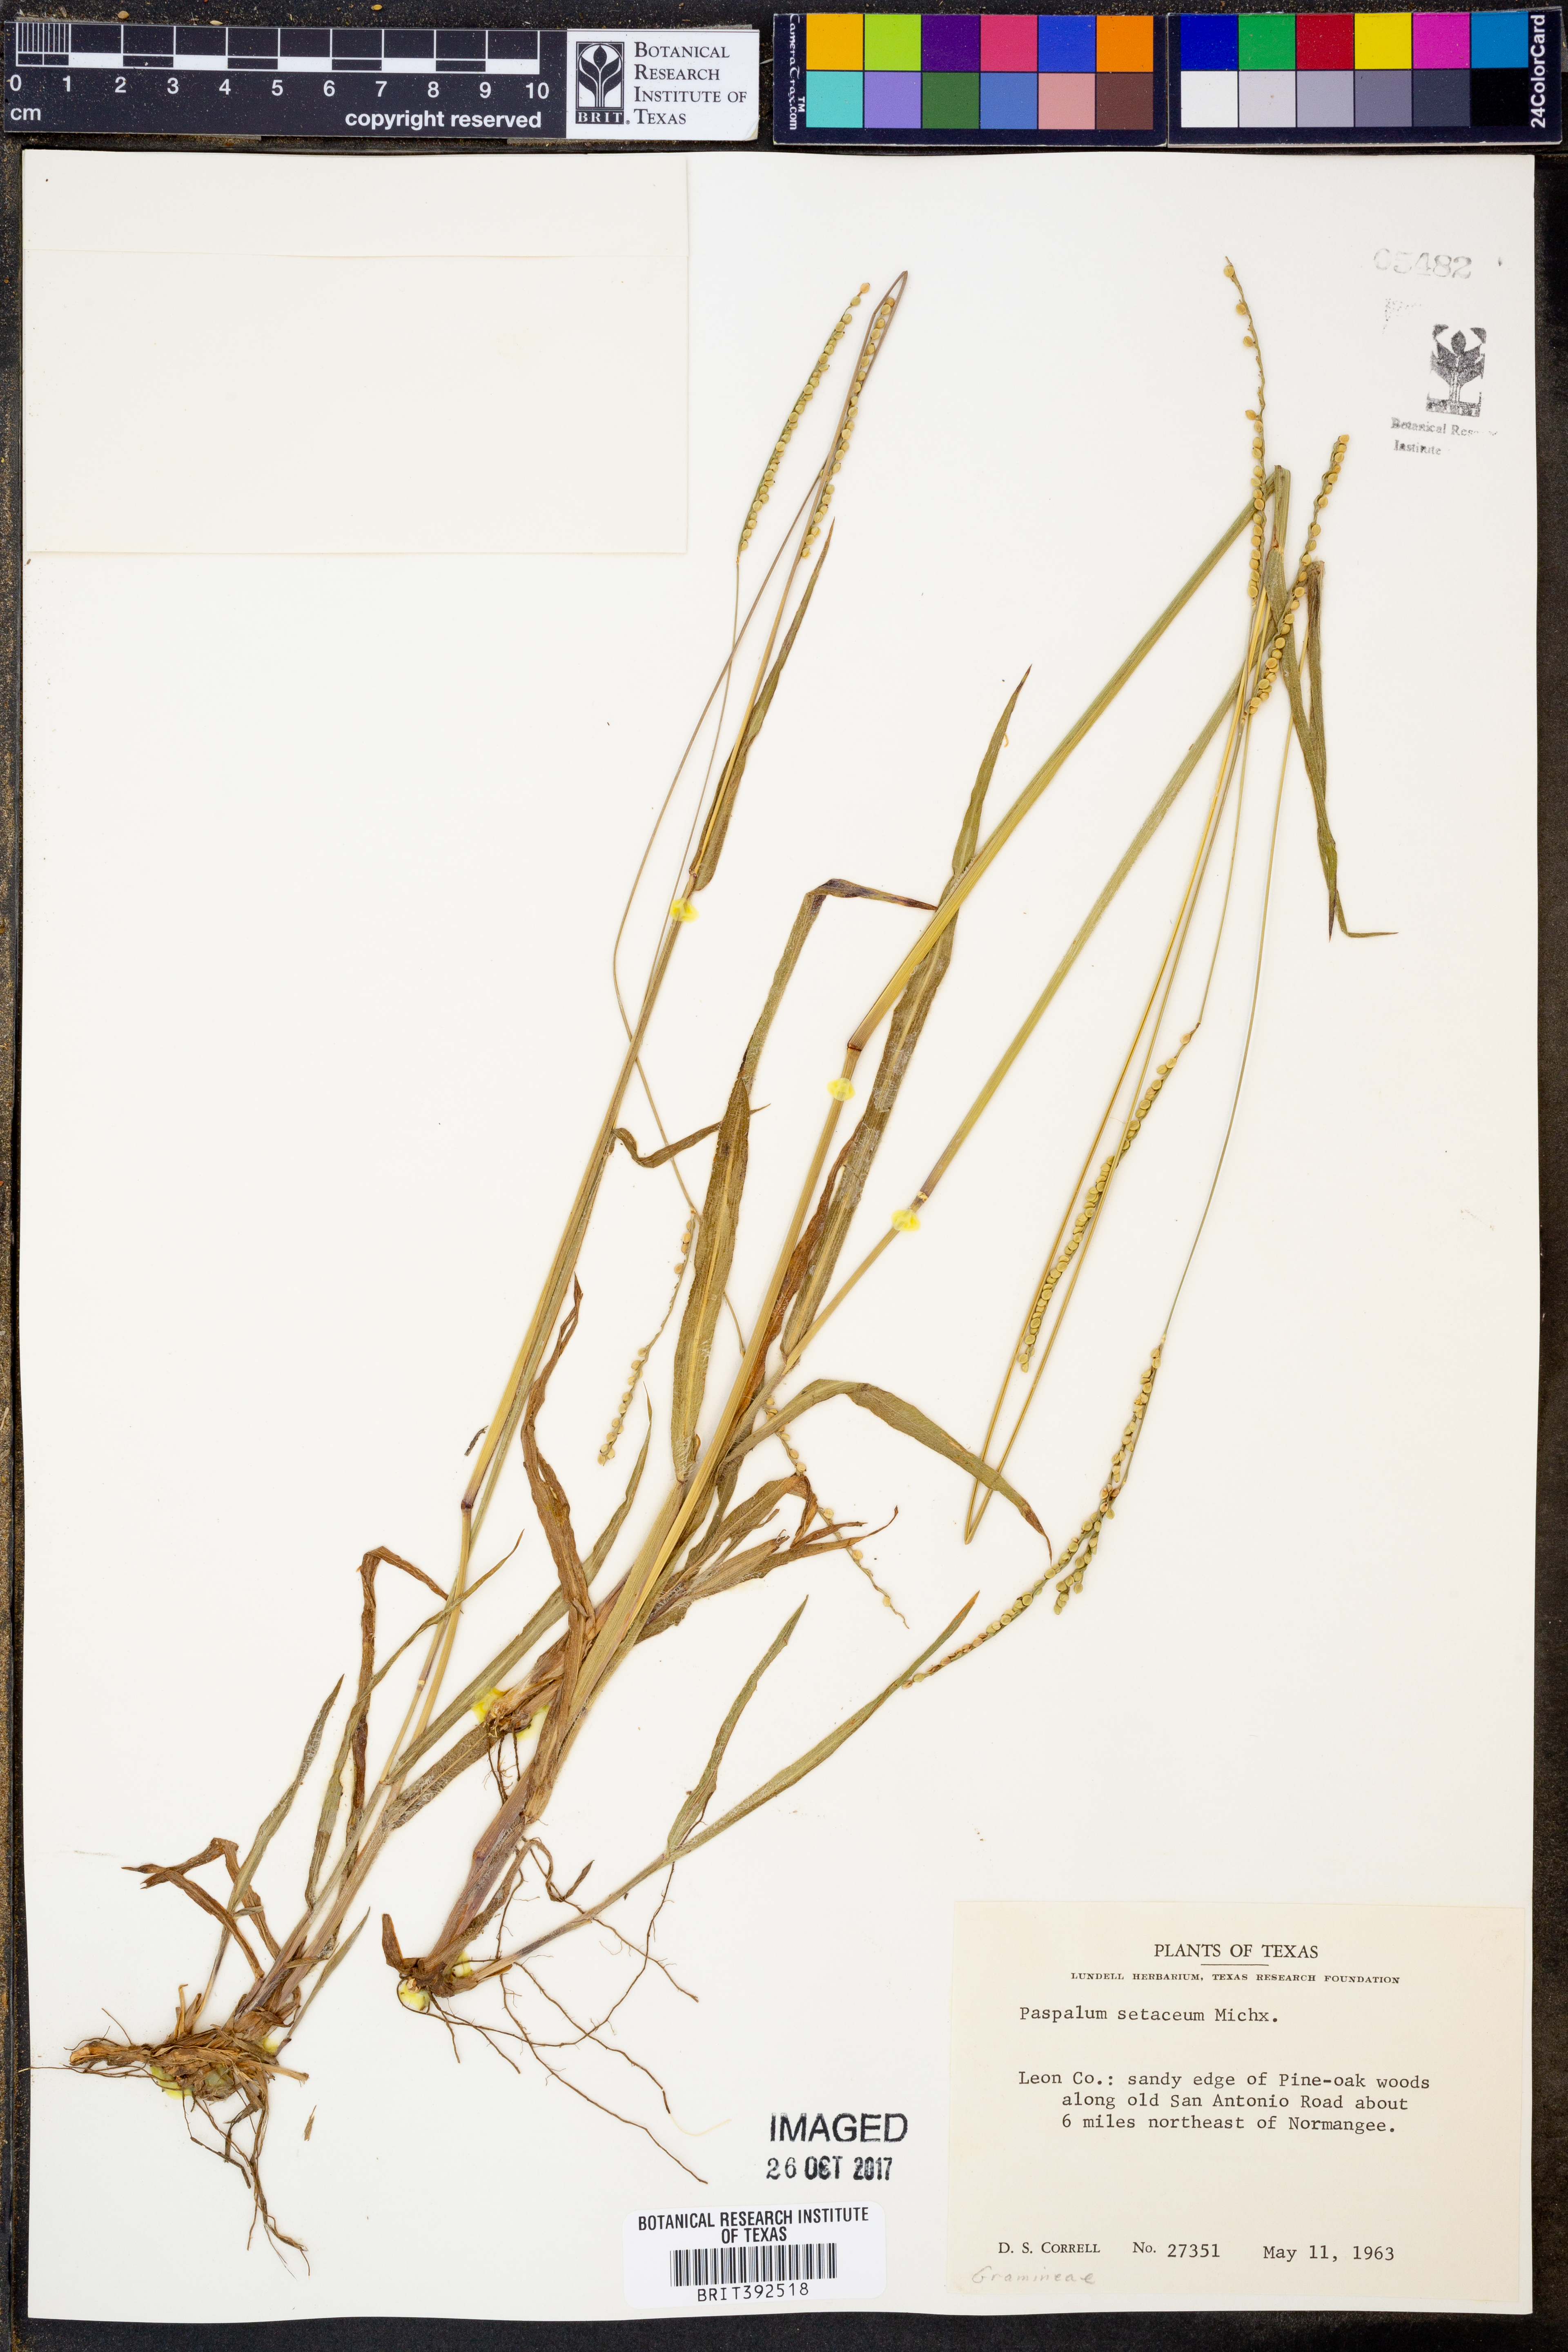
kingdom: Plantae
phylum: Tracheophyta
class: Liliopsida
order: Poales
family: Poaceae
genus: Paspalum
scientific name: Paspalum setaceum
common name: Slender paspalum
